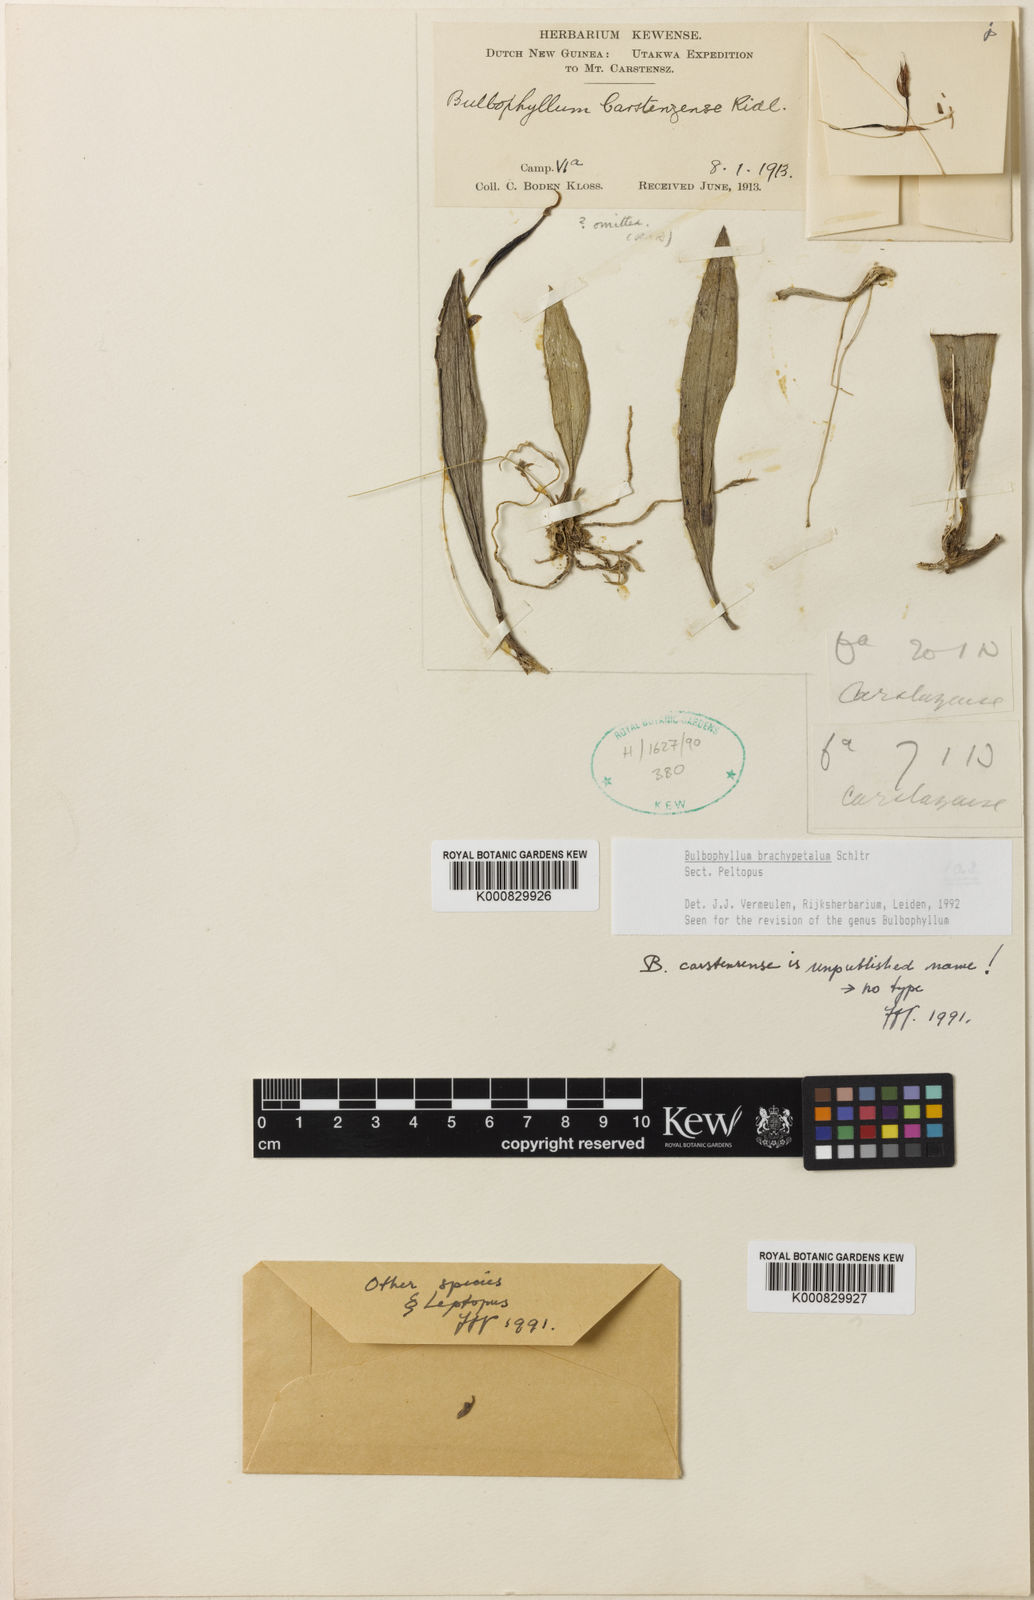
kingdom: Plantae
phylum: Tracheophyta
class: Liliopsida
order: Asparagales
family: Orchidaceae
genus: Bulbophyllum
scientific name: Bulbophyllum brachypetalum
